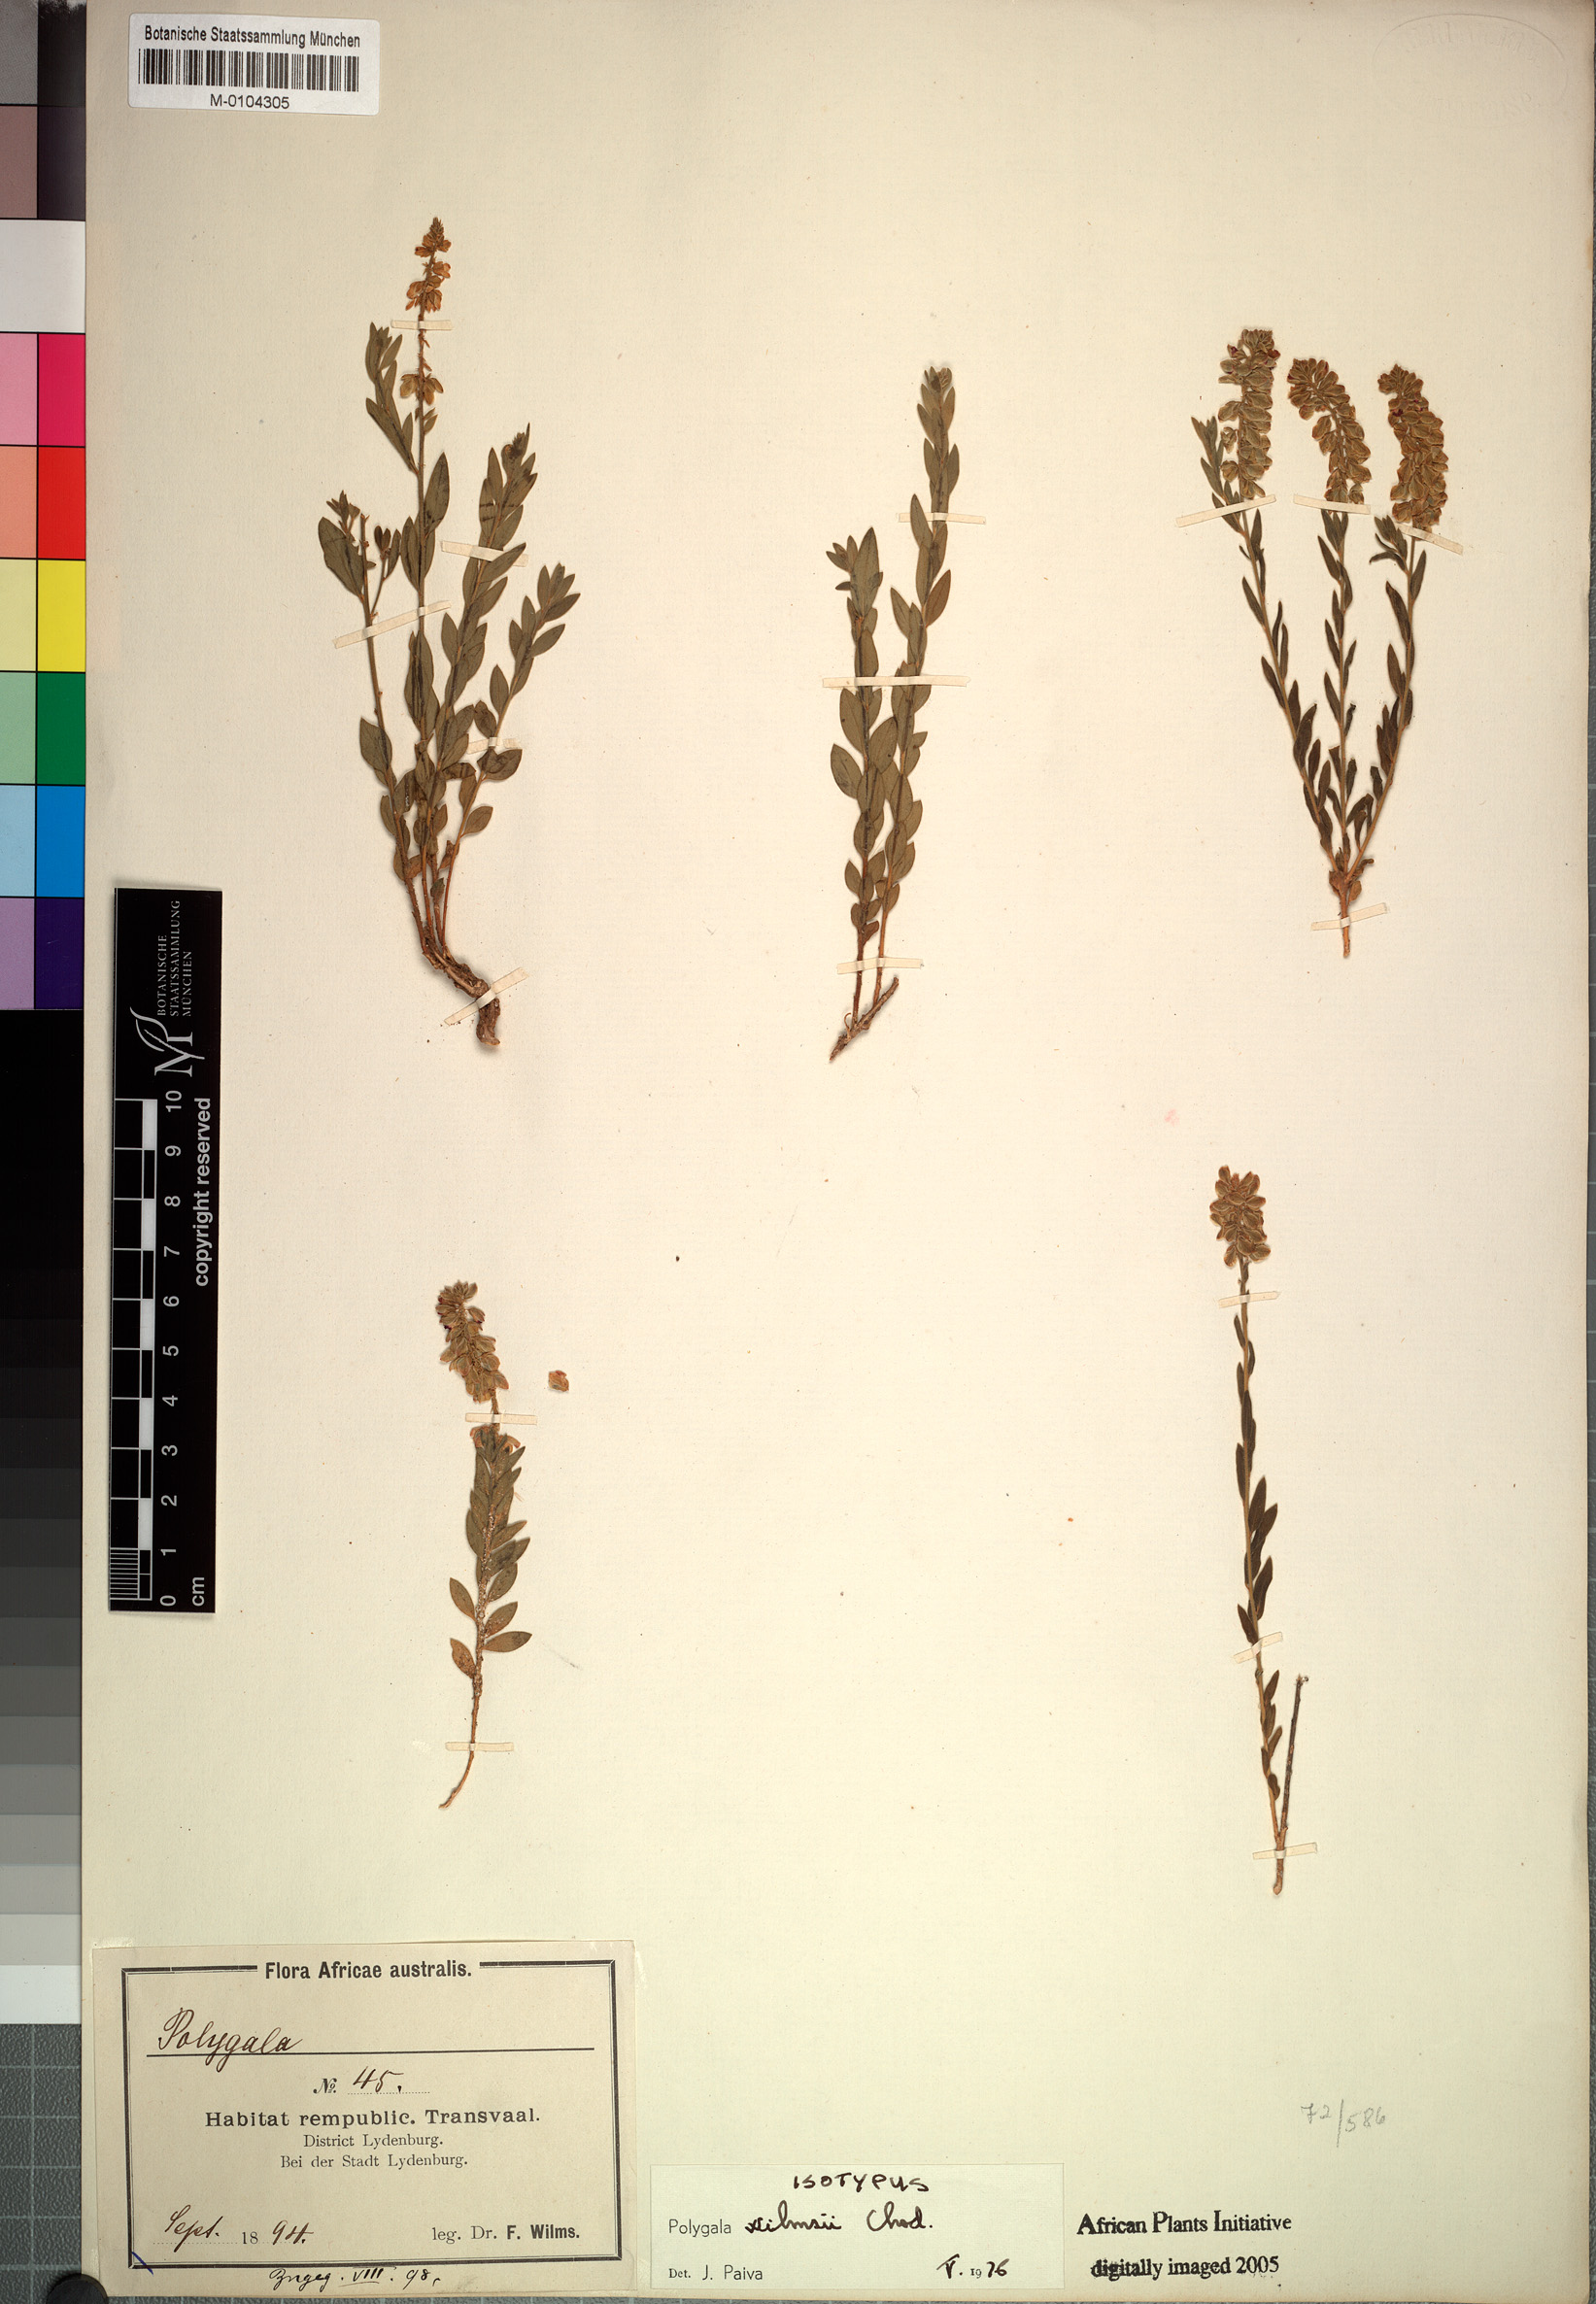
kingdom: Plantae
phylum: Tracheophyta
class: Magnoliopsida
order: Fabales
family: Polygalaceae
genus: Polygala
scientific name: Polygala wilmsii
